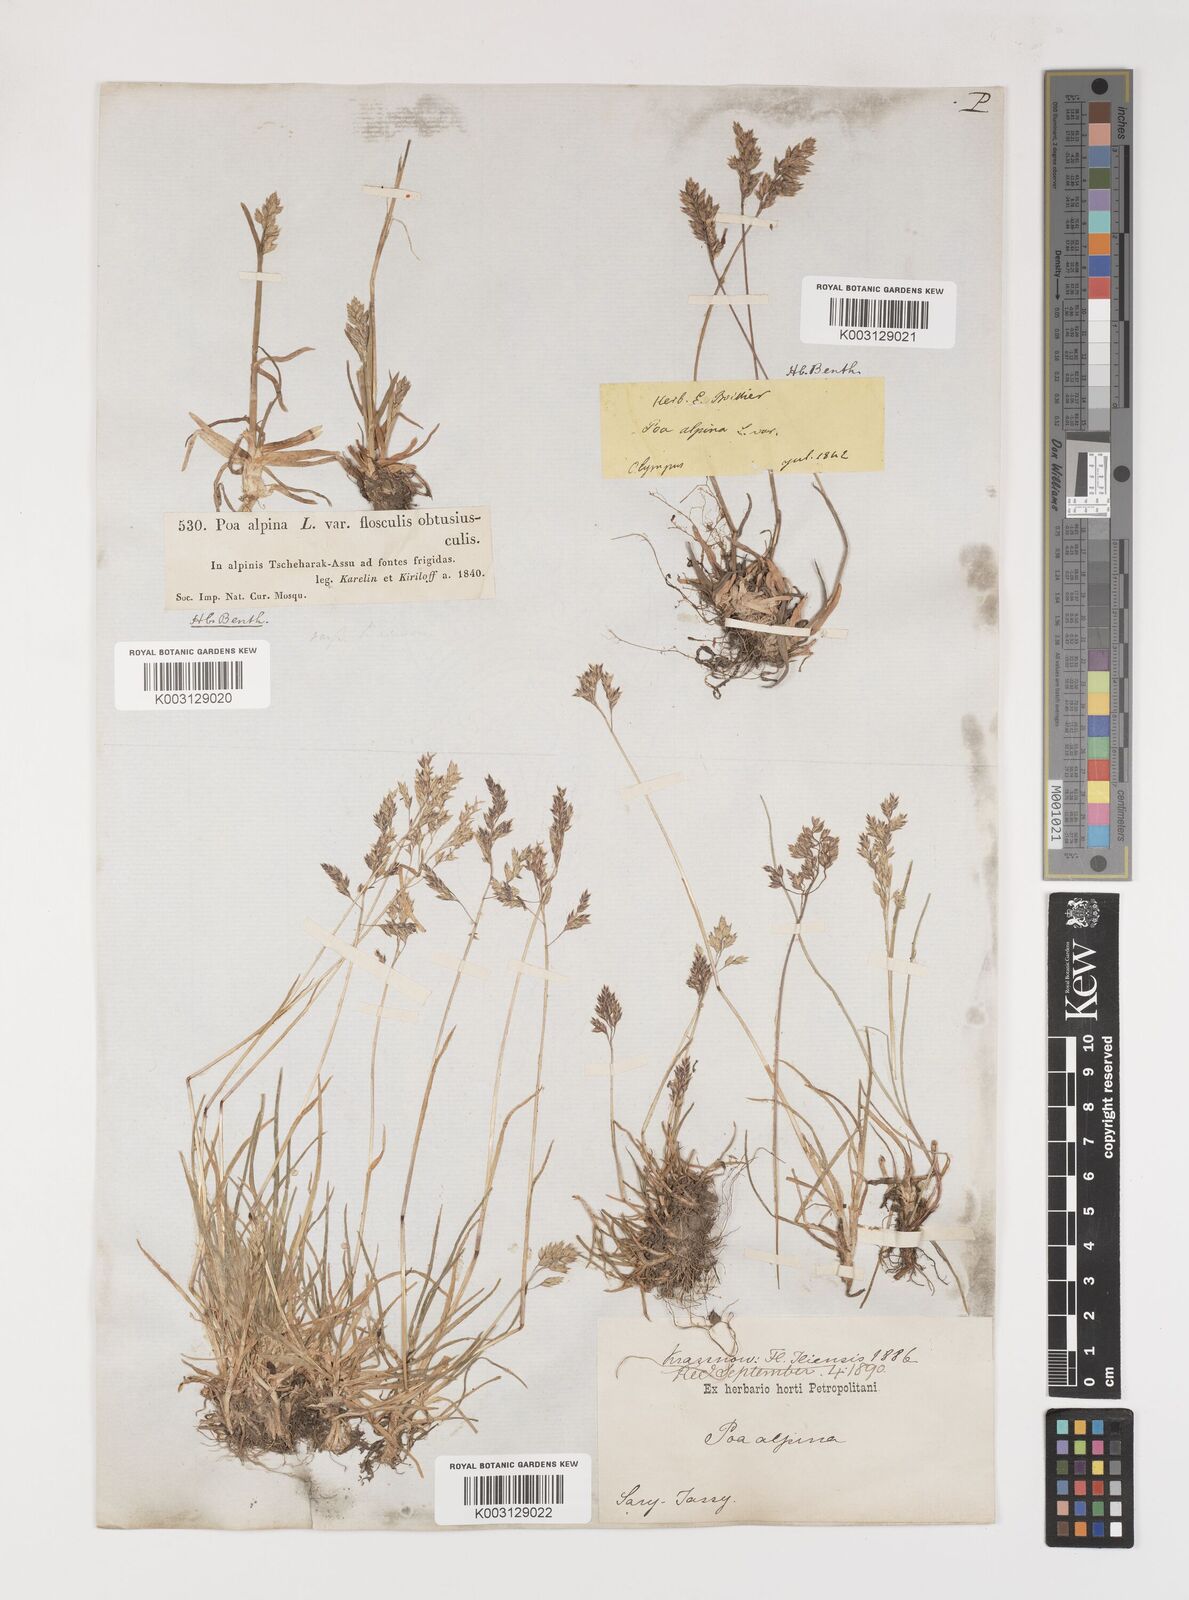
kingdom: Plantae
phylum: Tracheophyta
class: Liliopsida
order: Poales
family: Poaceae
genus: Poa
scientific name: Poa alpina
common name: Alpine bluegrass
